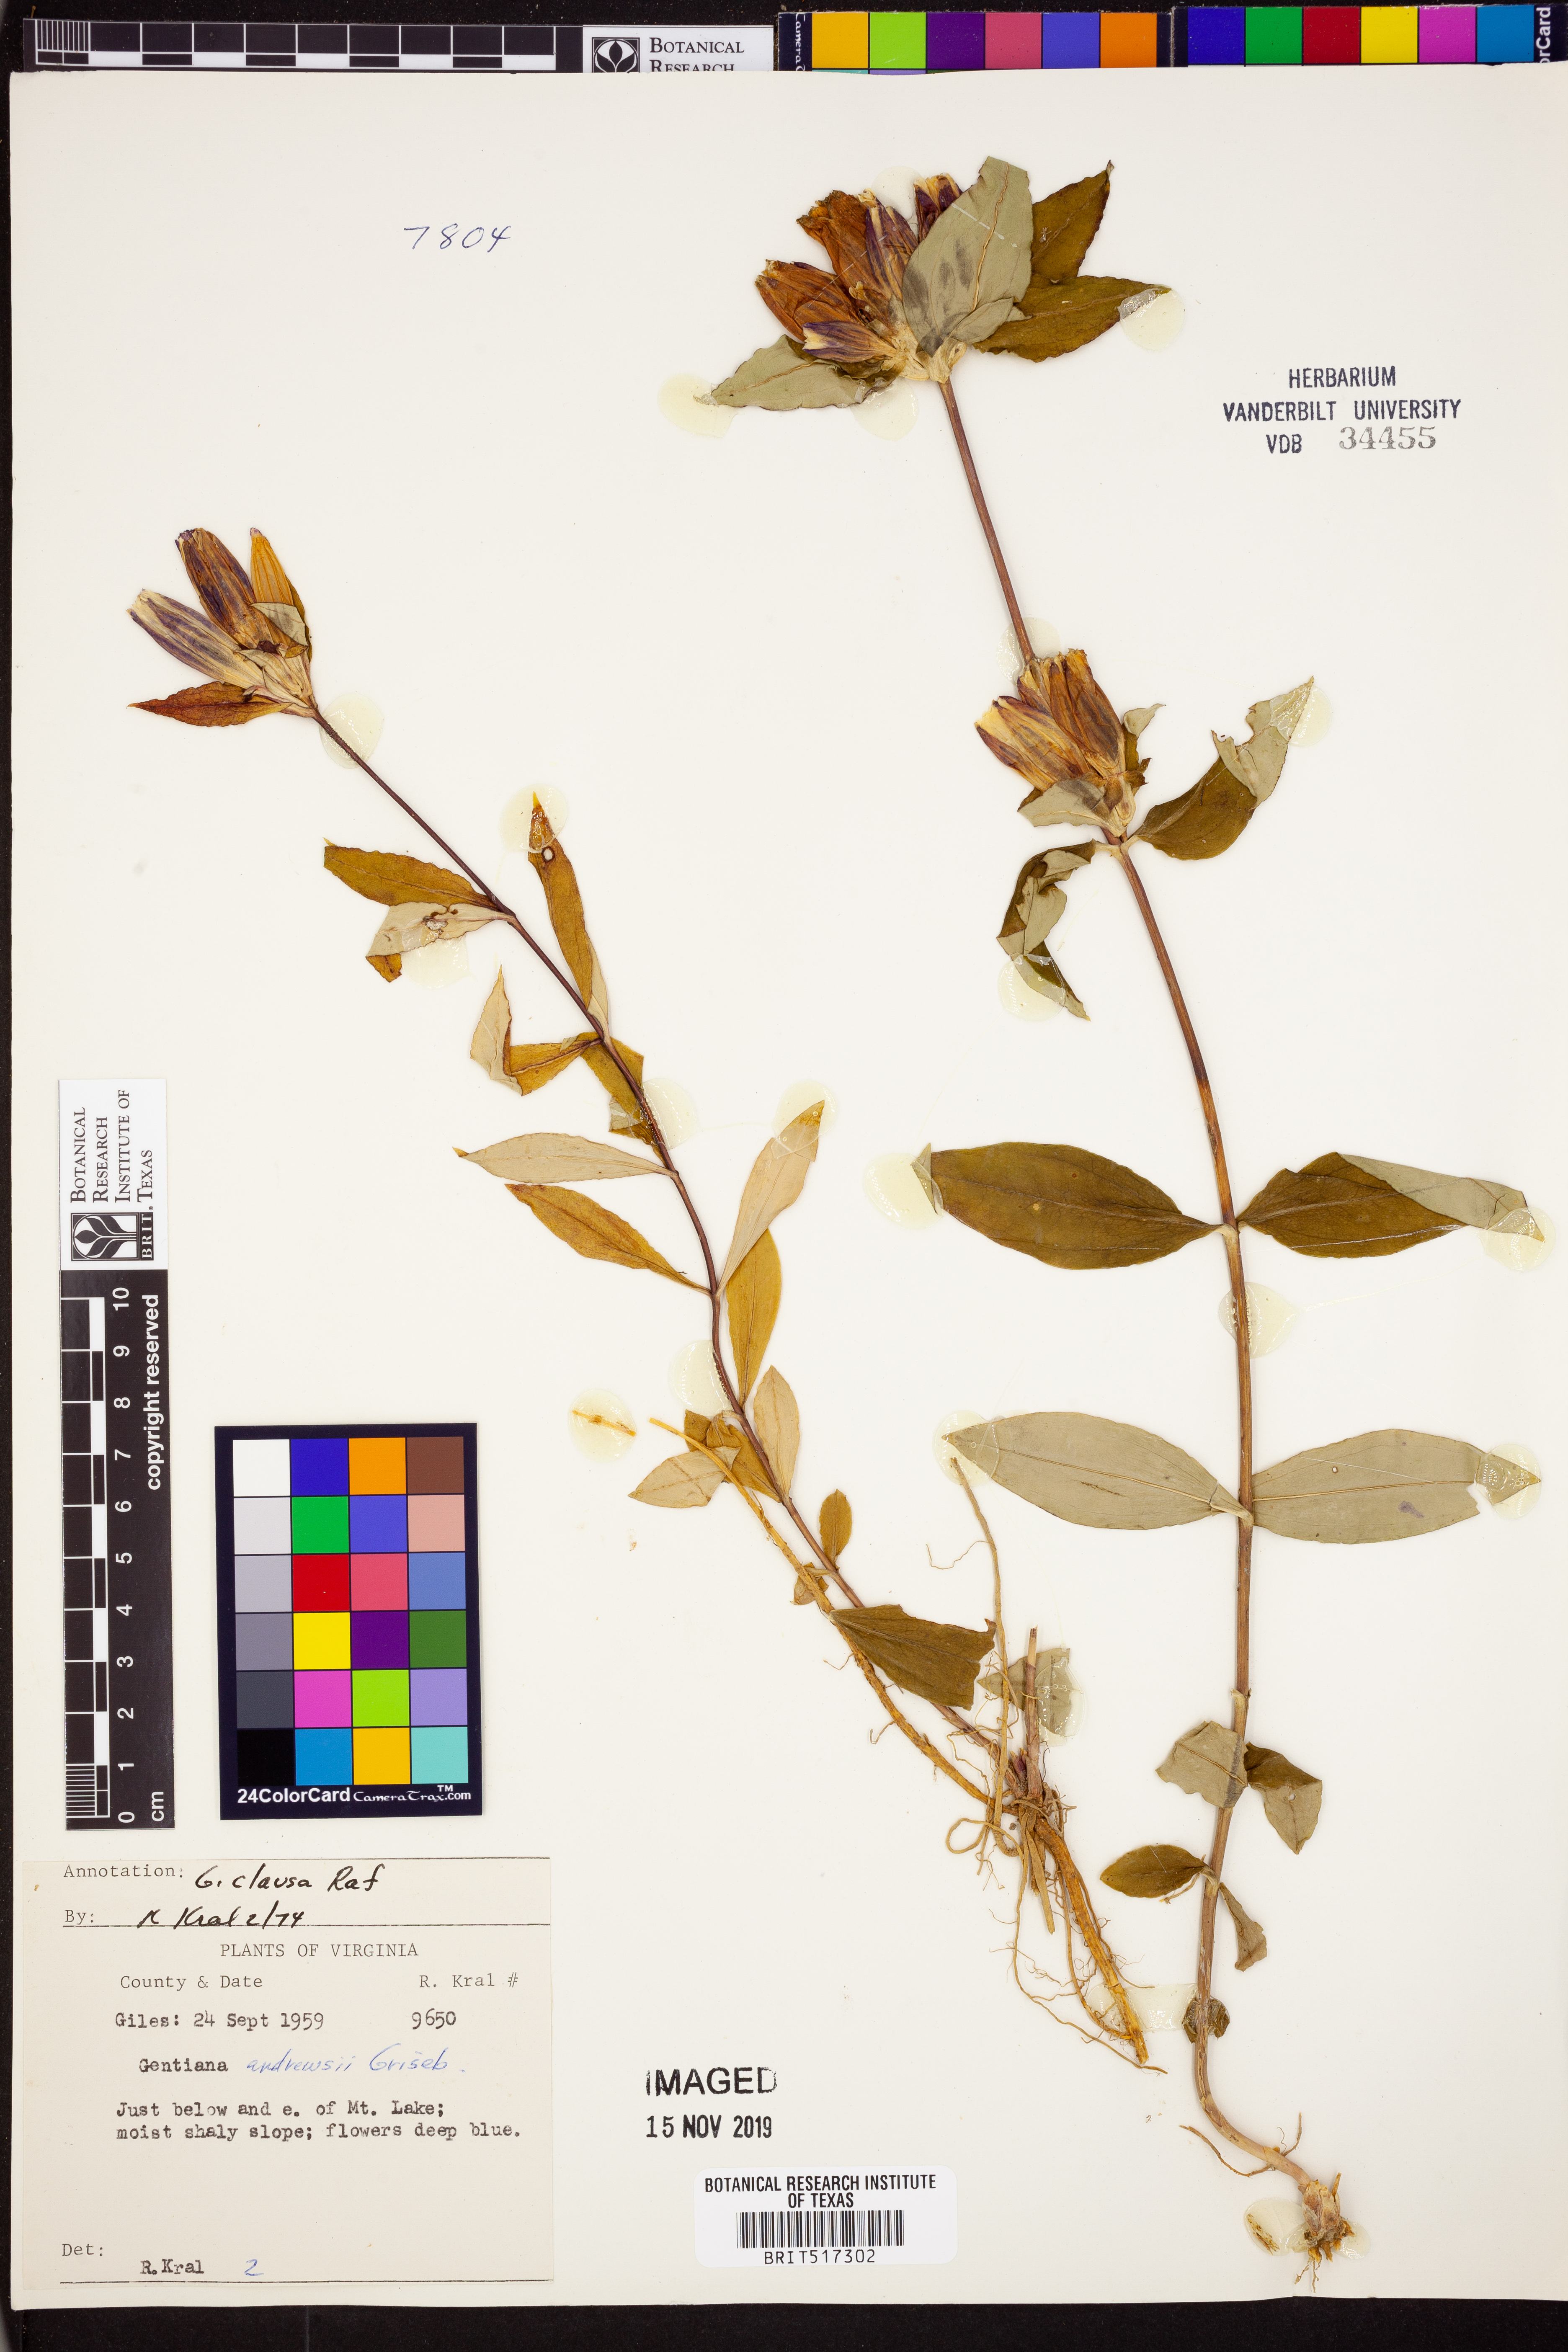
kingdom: Plantae
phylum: Tracheophyta
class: Magnoliopsida
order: Gentianales
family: Gentianaceae
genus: Gentiana
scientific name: Gentiana clausa
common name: Blind gentian
